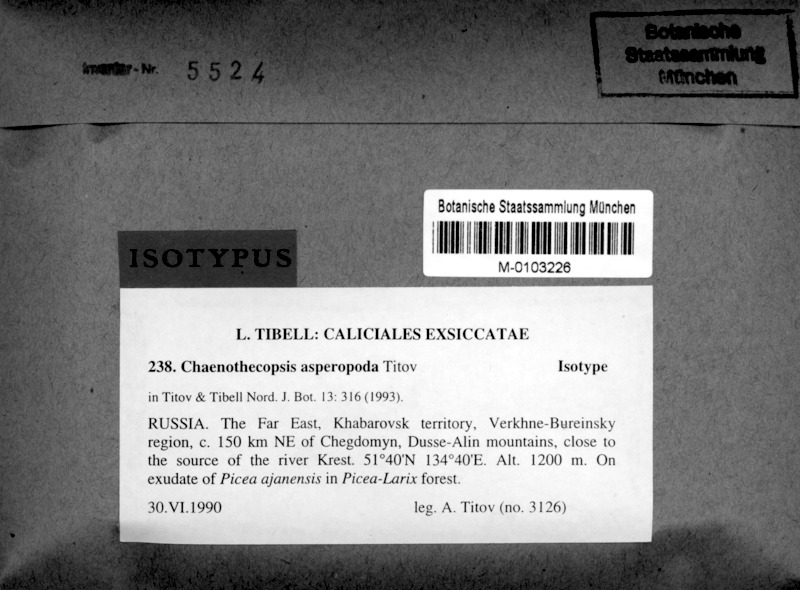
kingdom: Fungi
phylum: Ascomycota
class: Eurotiomycetes
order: Mycocaliciales
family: Mycocaliciaceae
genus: Chaenothecopsis
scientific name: Chaenothecopsis asperopoda
